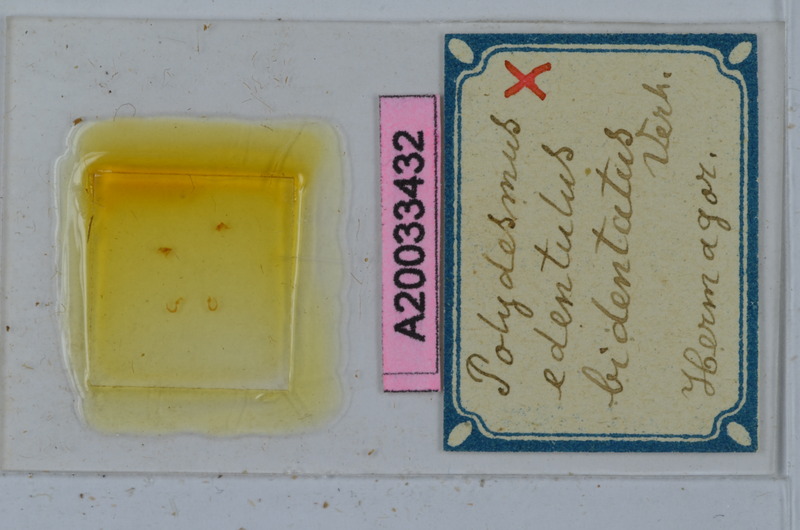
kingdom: Animalia
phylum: Arthropoda
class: Diplopoda
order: Polydesmida
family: Polydesmidae
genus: Polydesmus
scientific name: Polydesmus edentulus
